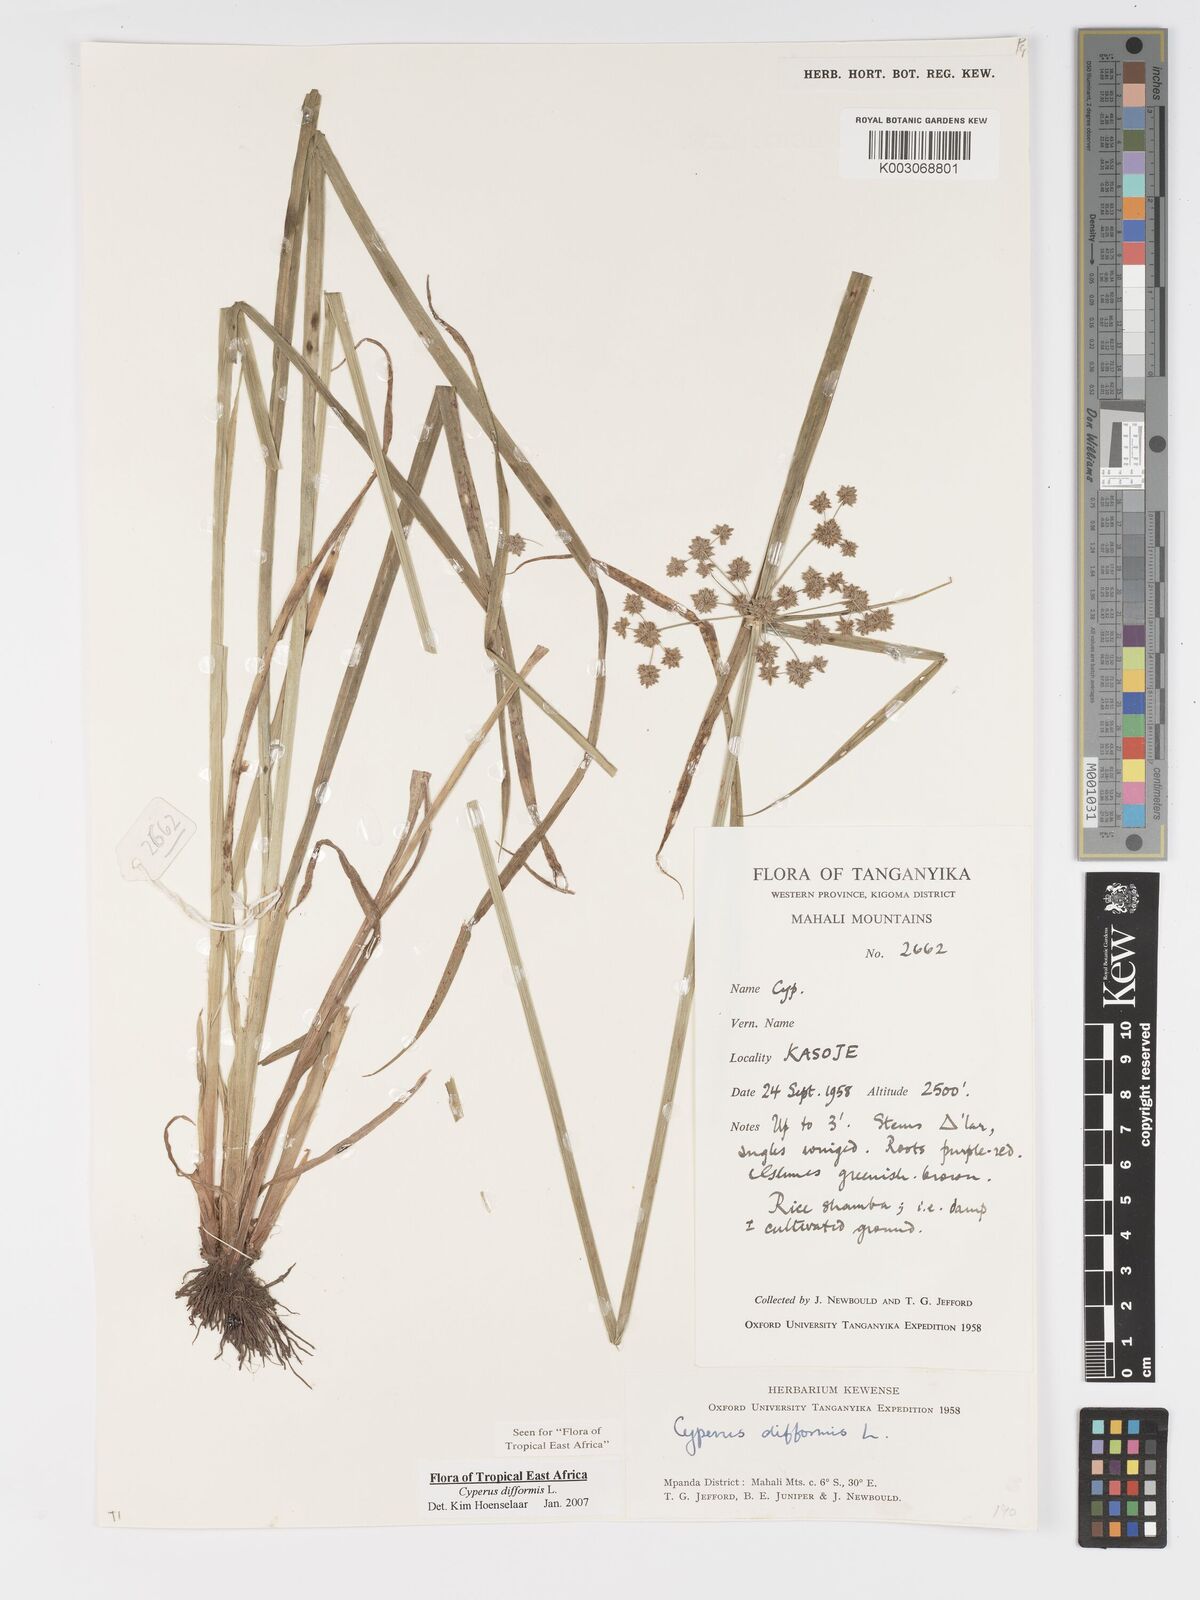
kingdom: Plantae
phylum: Tracheophyta
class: Liliopsida
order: Poales
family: Cyperaceae
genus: Cyperus
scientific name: Cyperus difformis
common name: Variable flatsedge
